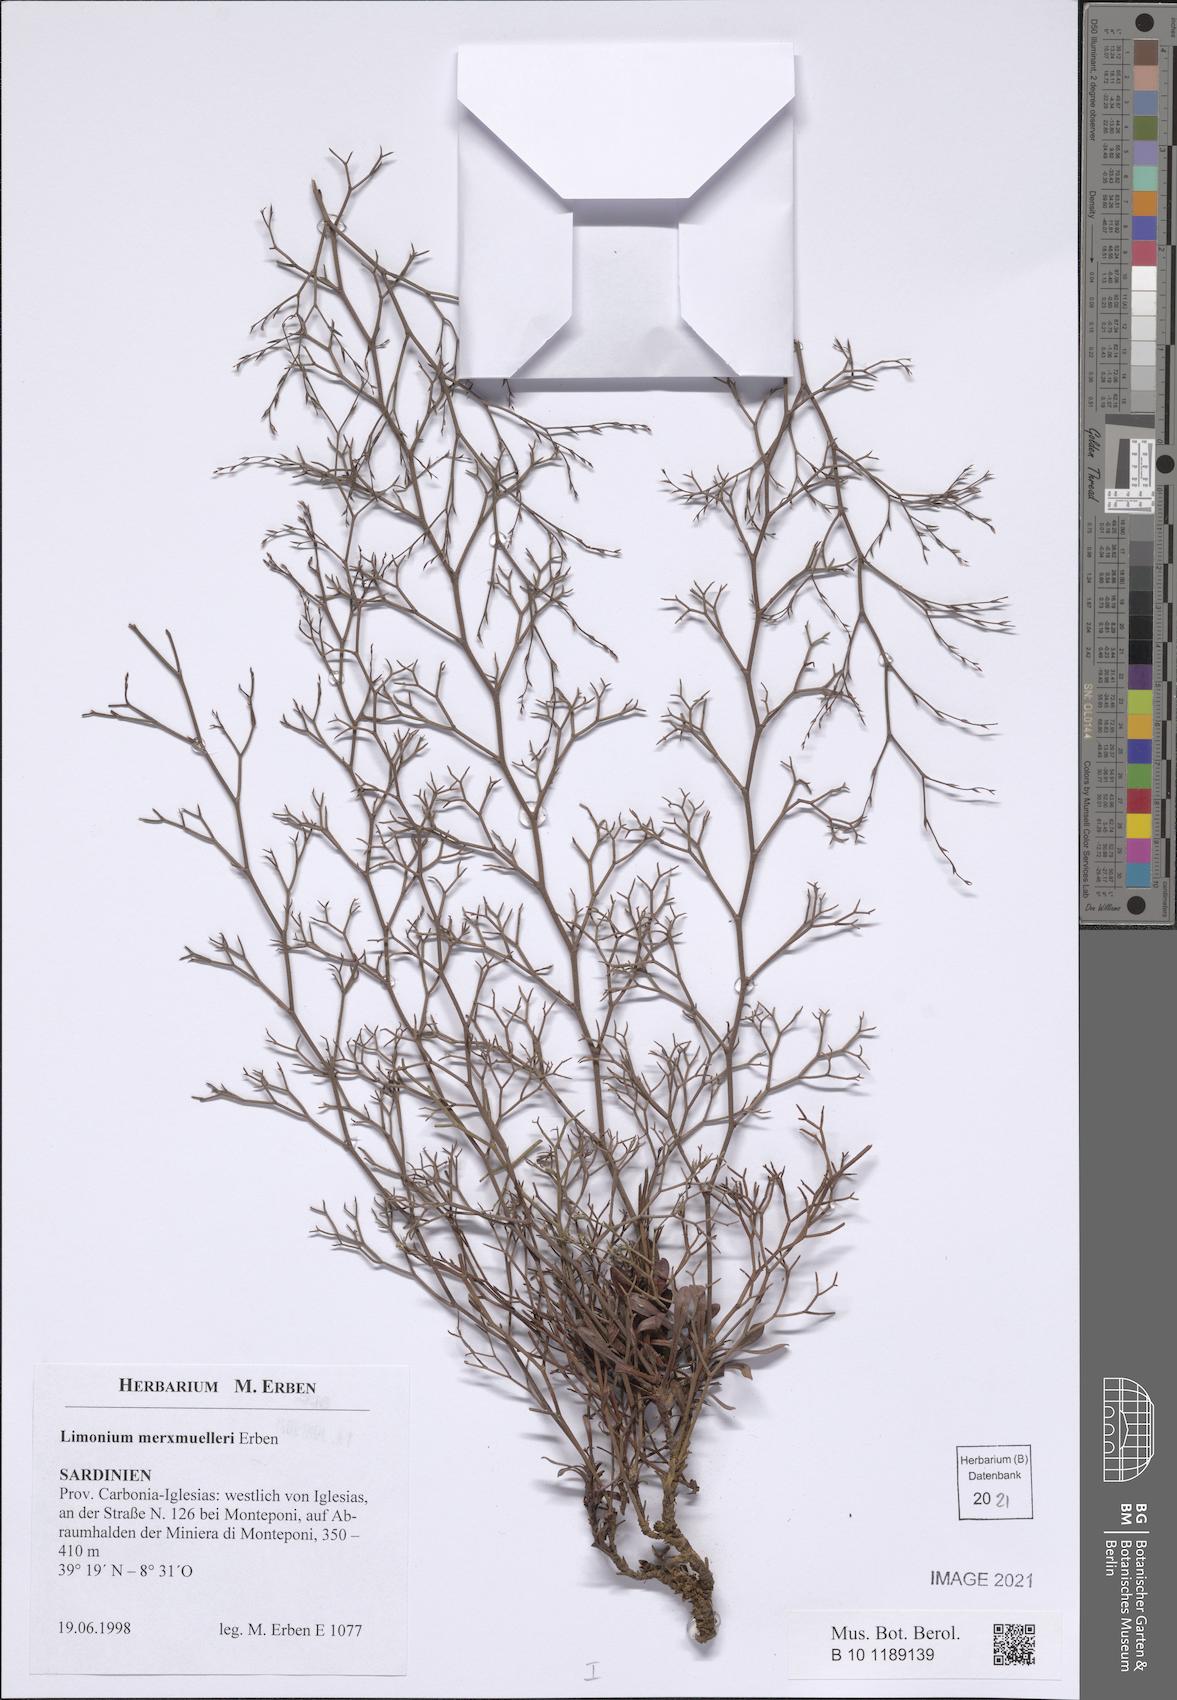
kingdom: Plantae
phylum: Tracheophyta
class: Magnoliopsida
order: Caryophyllales
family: Plumbaginaceae
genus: Limonium
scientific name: Limonium merxmuelleri
